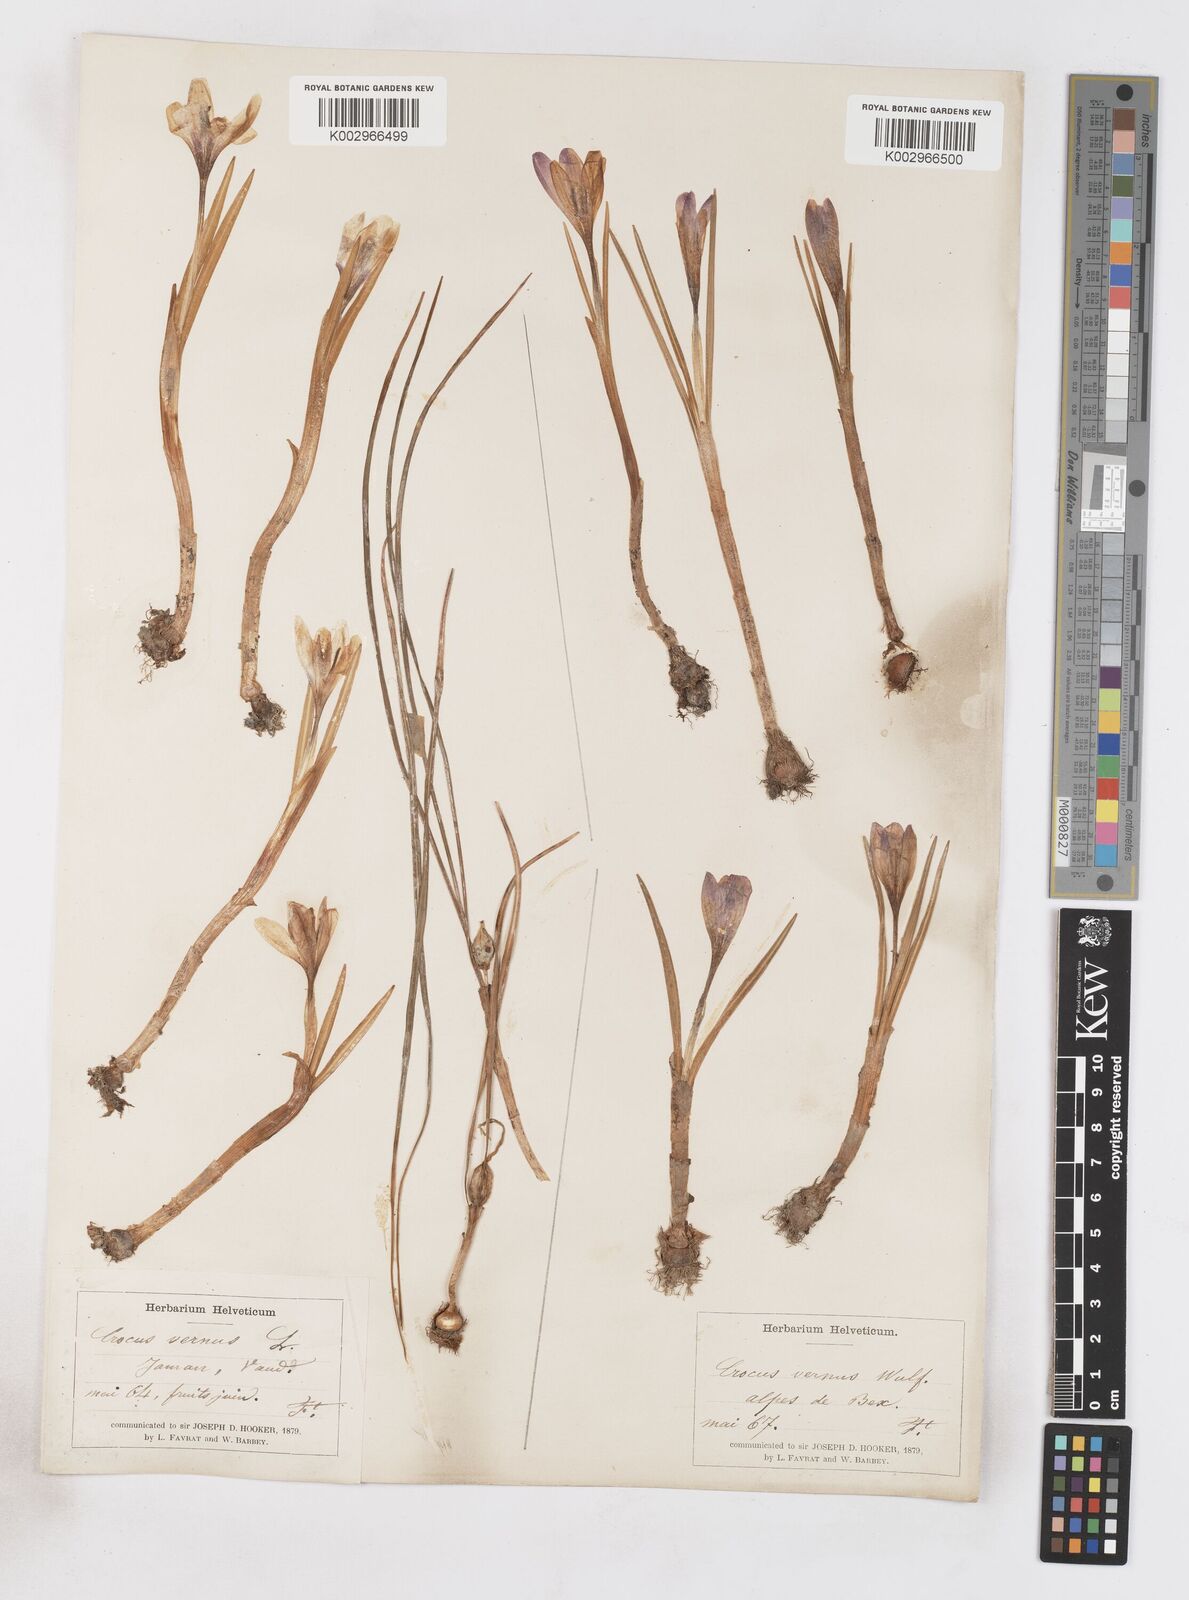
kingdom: Plantae
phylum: Tracheophyta
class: Liliopsida
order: Asparagales
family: Iridaceae
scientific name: Iridaceae
